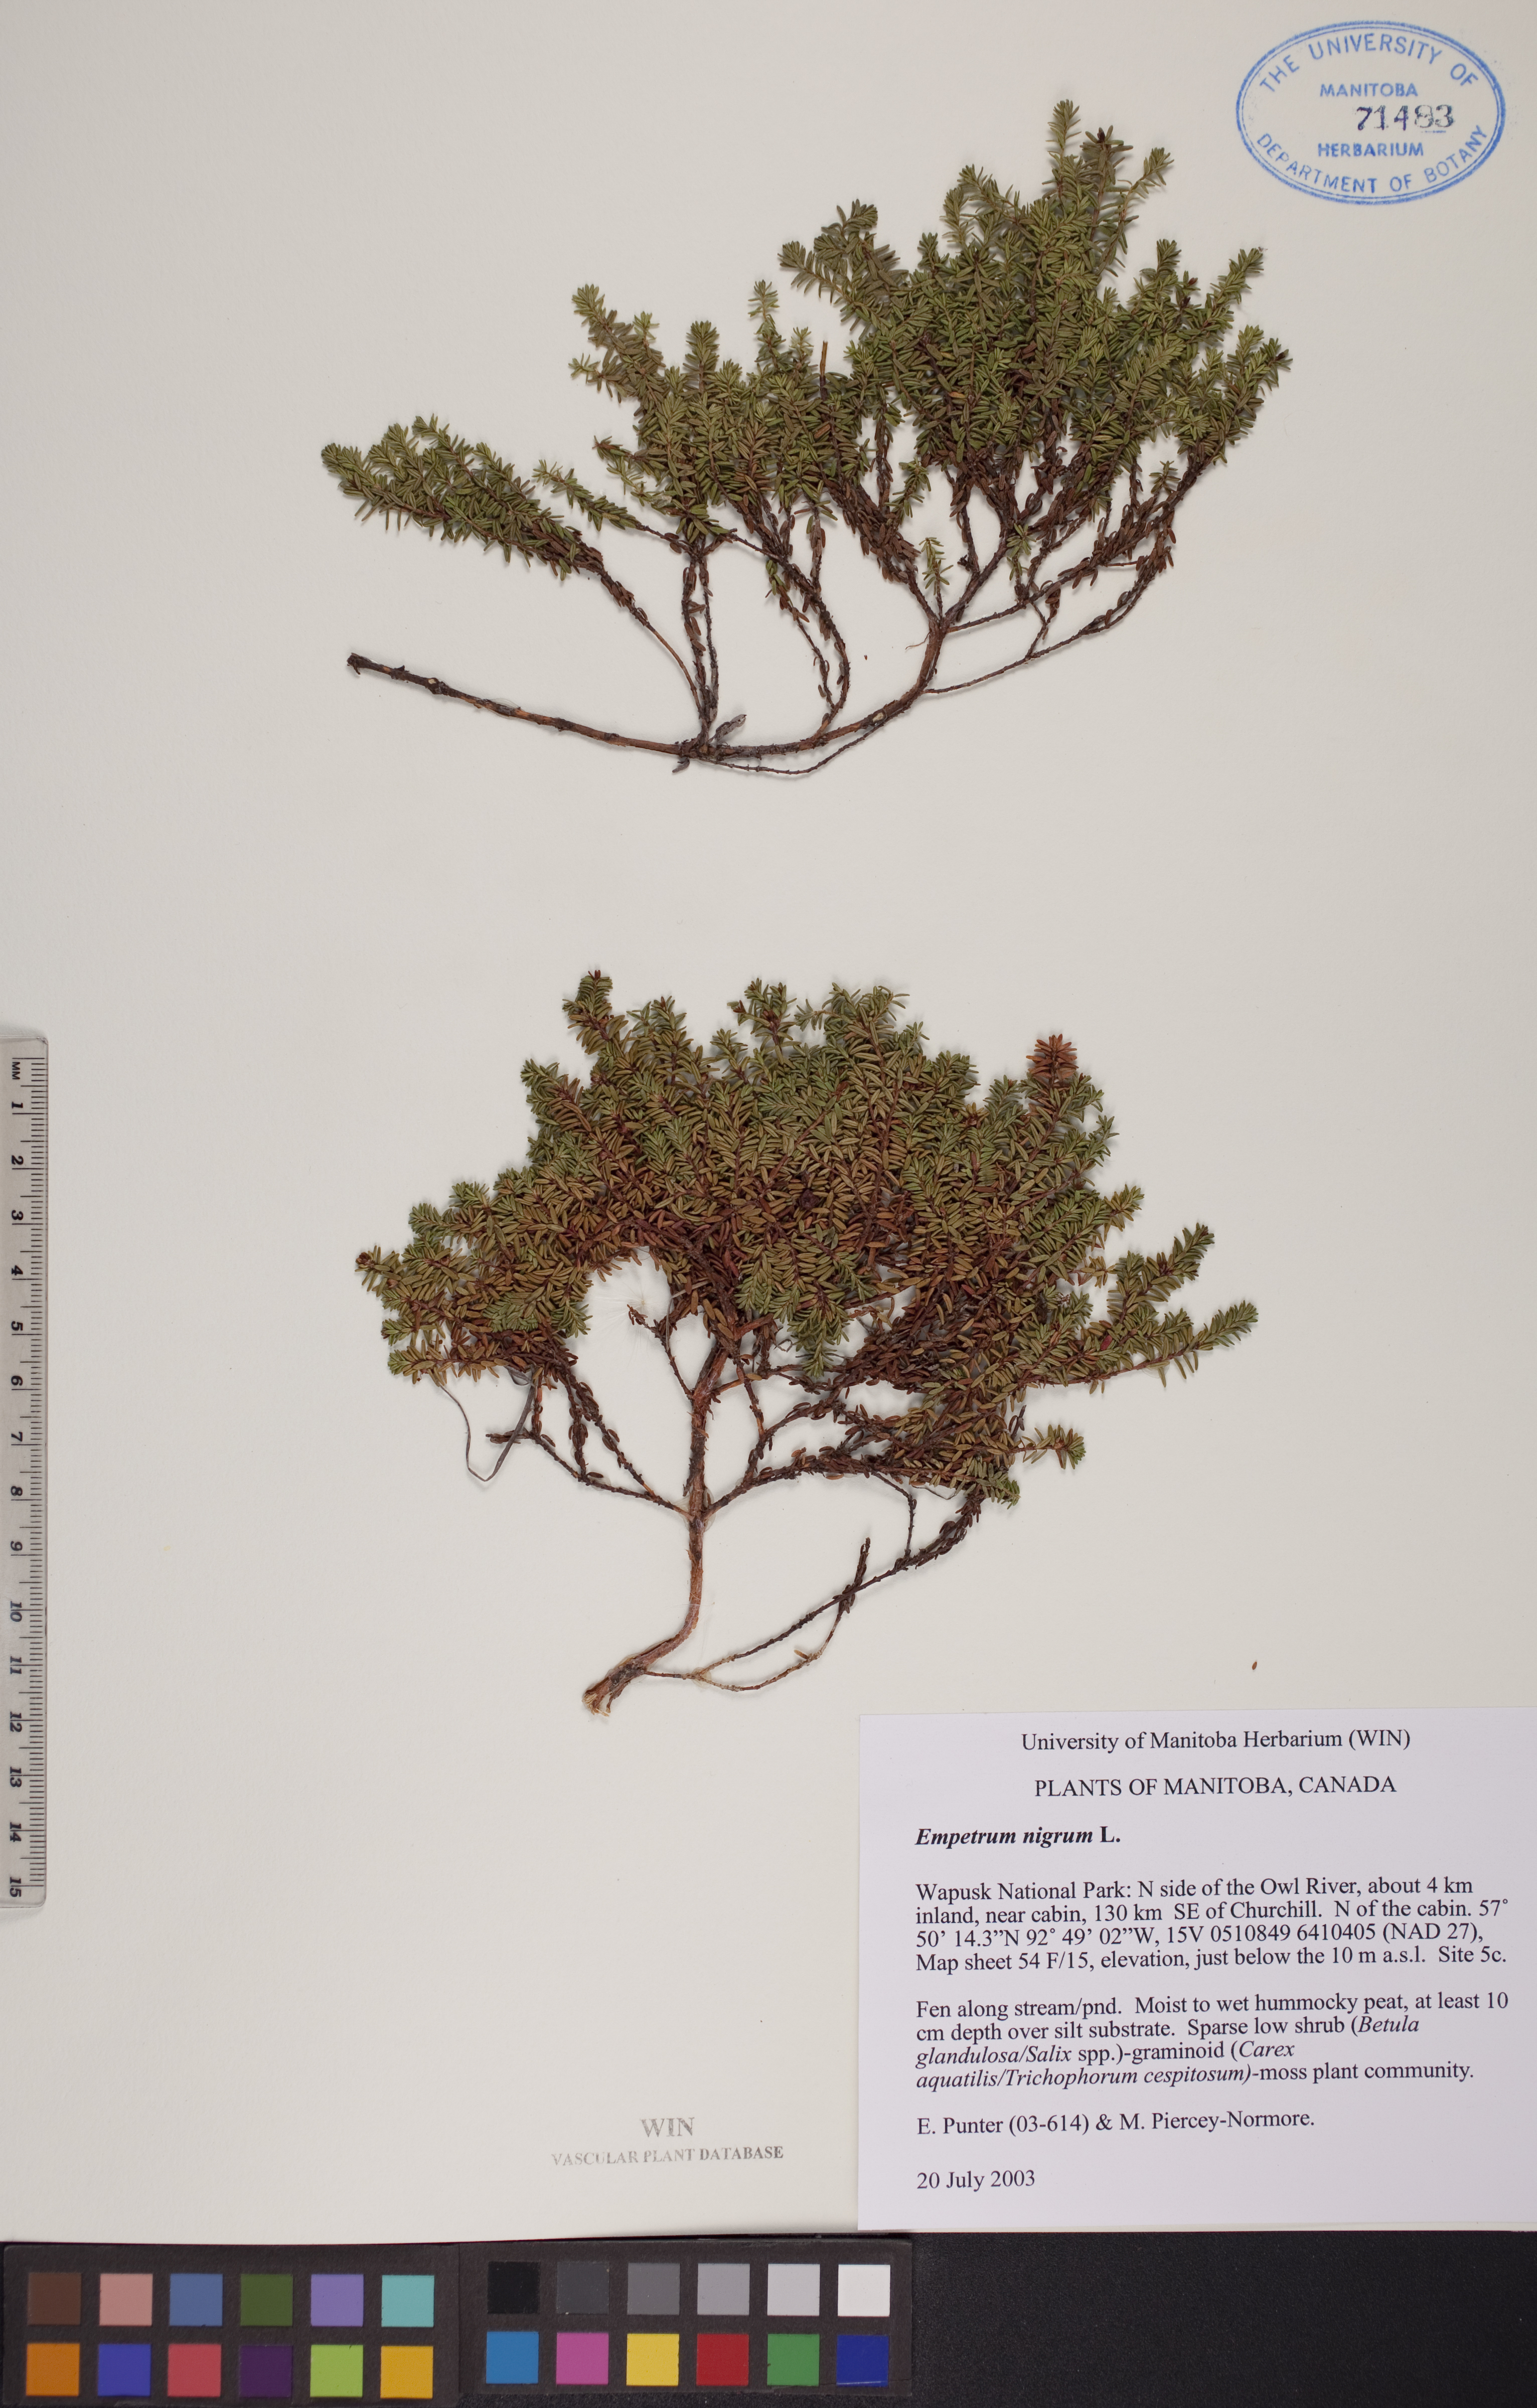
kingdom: Plantae
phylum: Tracheophyta
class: Magnoliopsida
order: Ericales
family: Ericaceae
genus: Empetrum
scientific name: Empetrum nigrum
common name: Black crowberry
